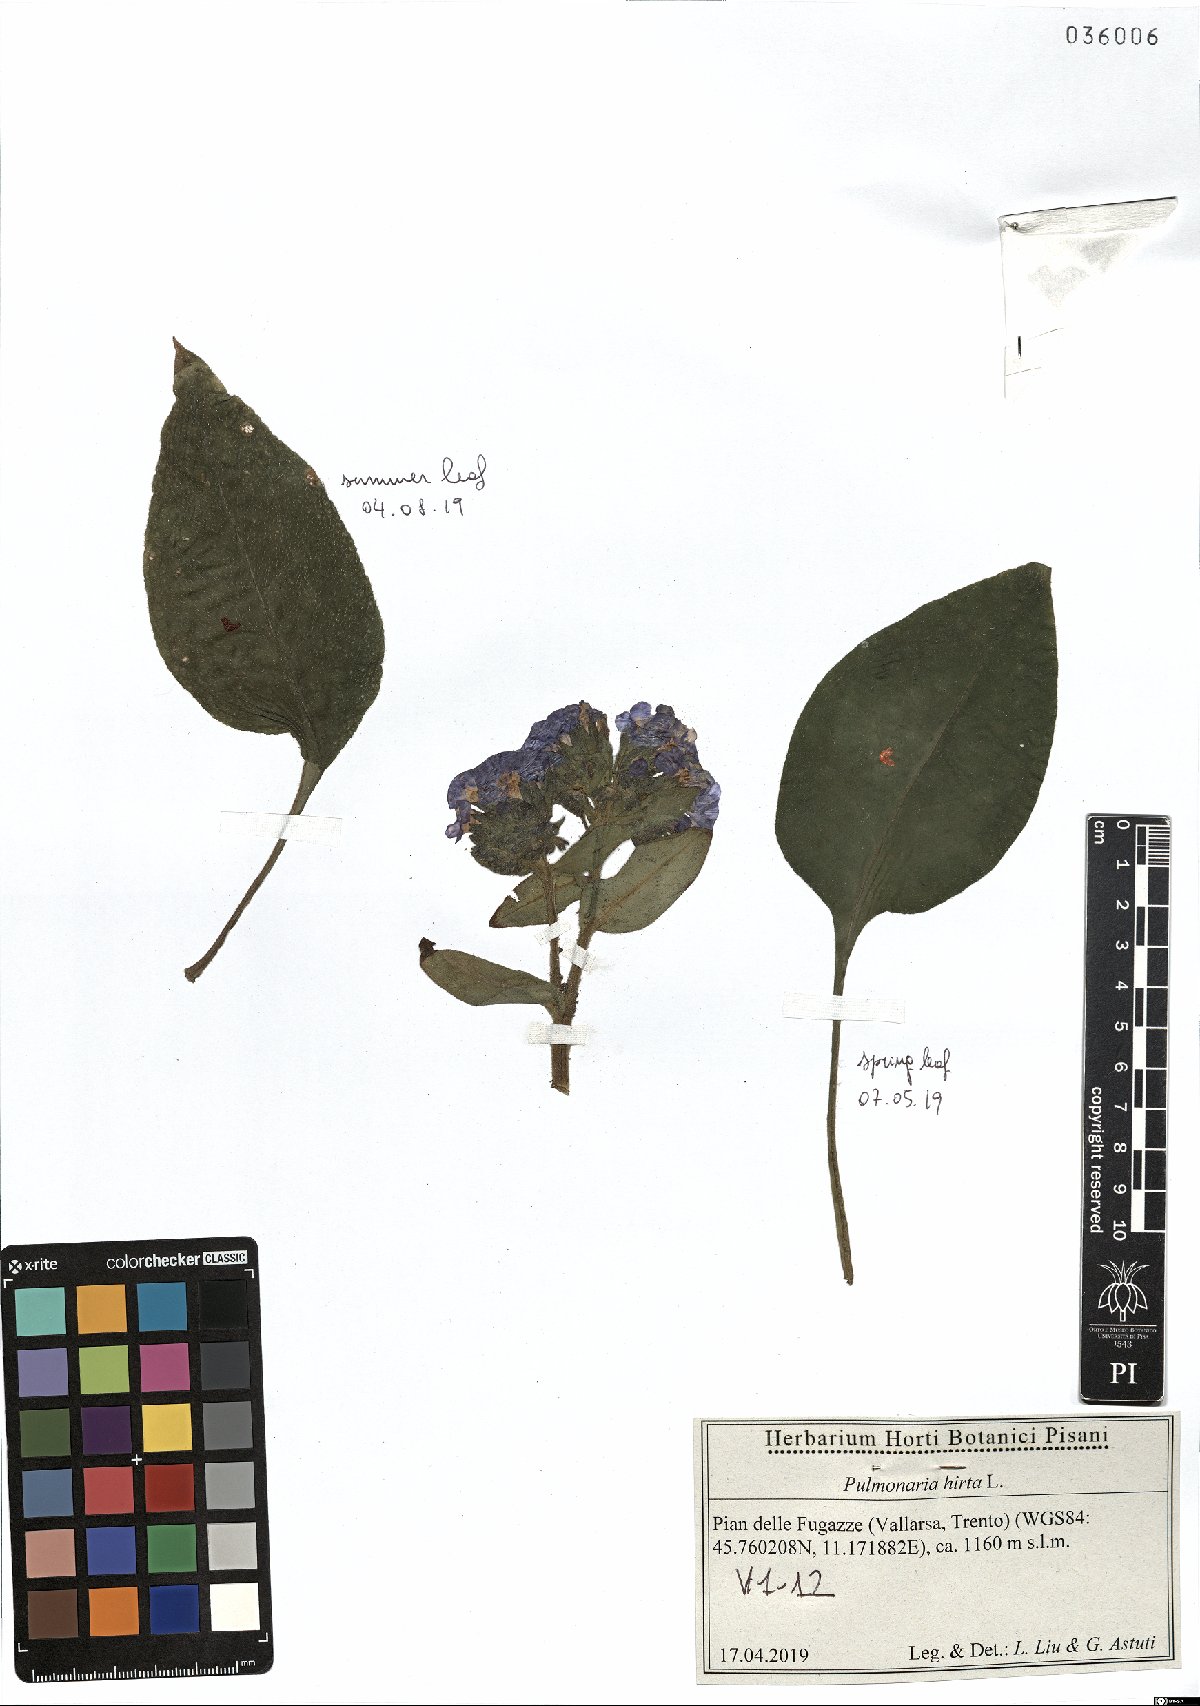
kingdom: Plantae
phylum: Tracheophyta
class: Magnoliopsida
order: Boraginales
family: Boraginaceae
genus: Pulmonaria
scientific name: Pulmonaria hirta
